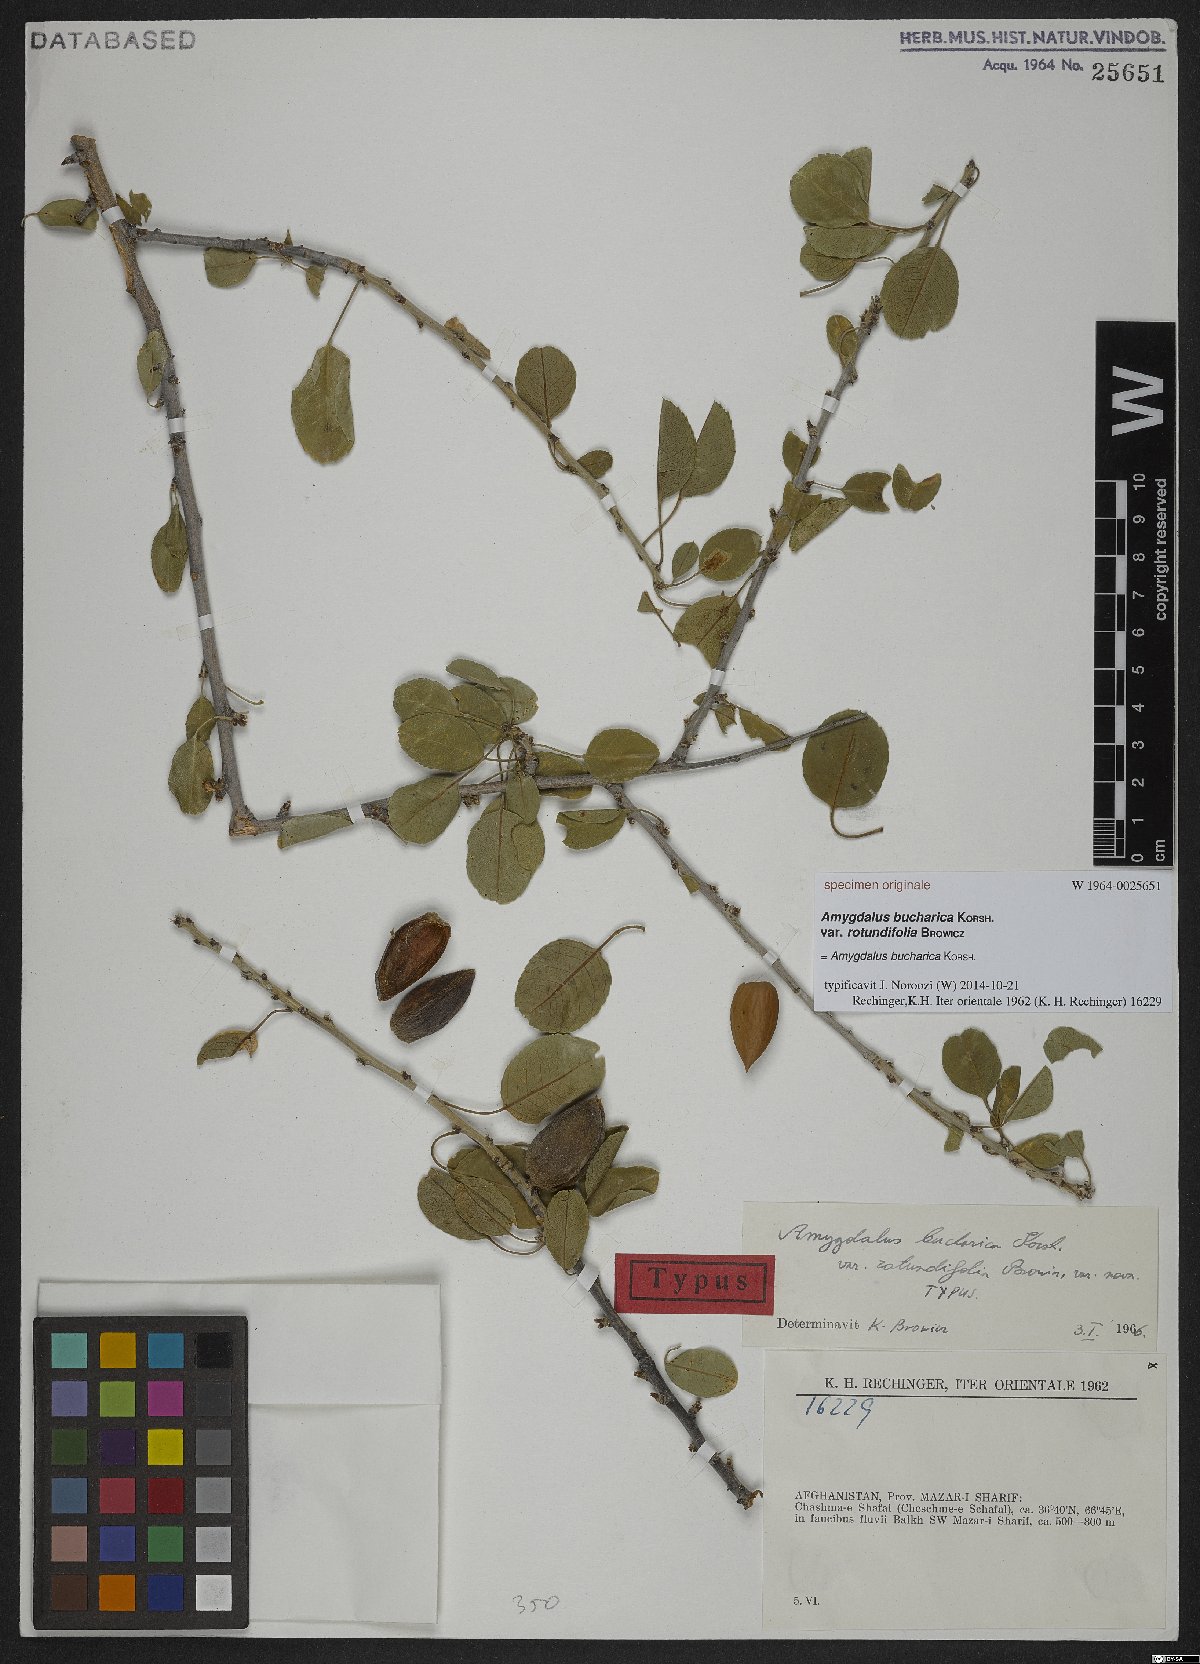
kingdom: Plantae
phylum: Tracheophyta
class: Magnoliopsida
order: Rosales
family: Rosaceae
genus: Prunus
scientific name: Prunus bucharica
